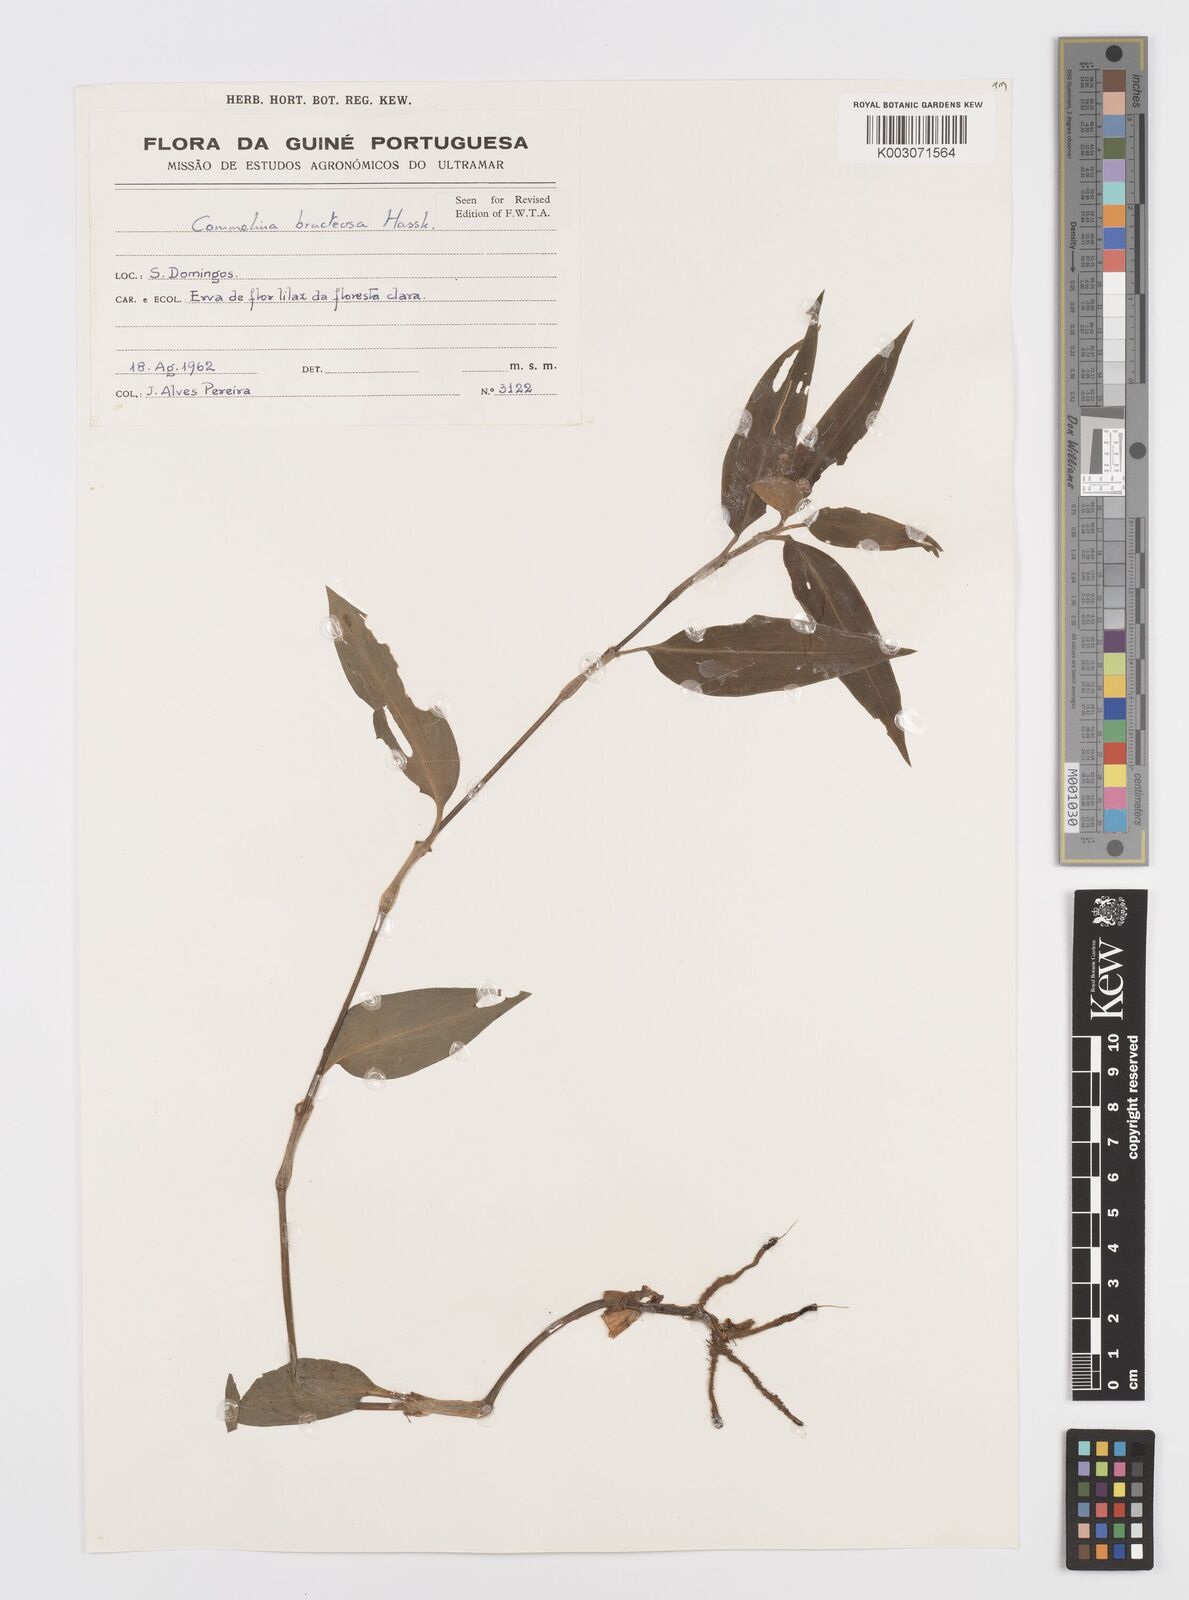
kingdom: Plantae
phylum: Tracheophyta
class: Liliopsida
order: Commelinales
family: Commelinaceae
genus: Commelina
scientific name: Commelina bracteosa
